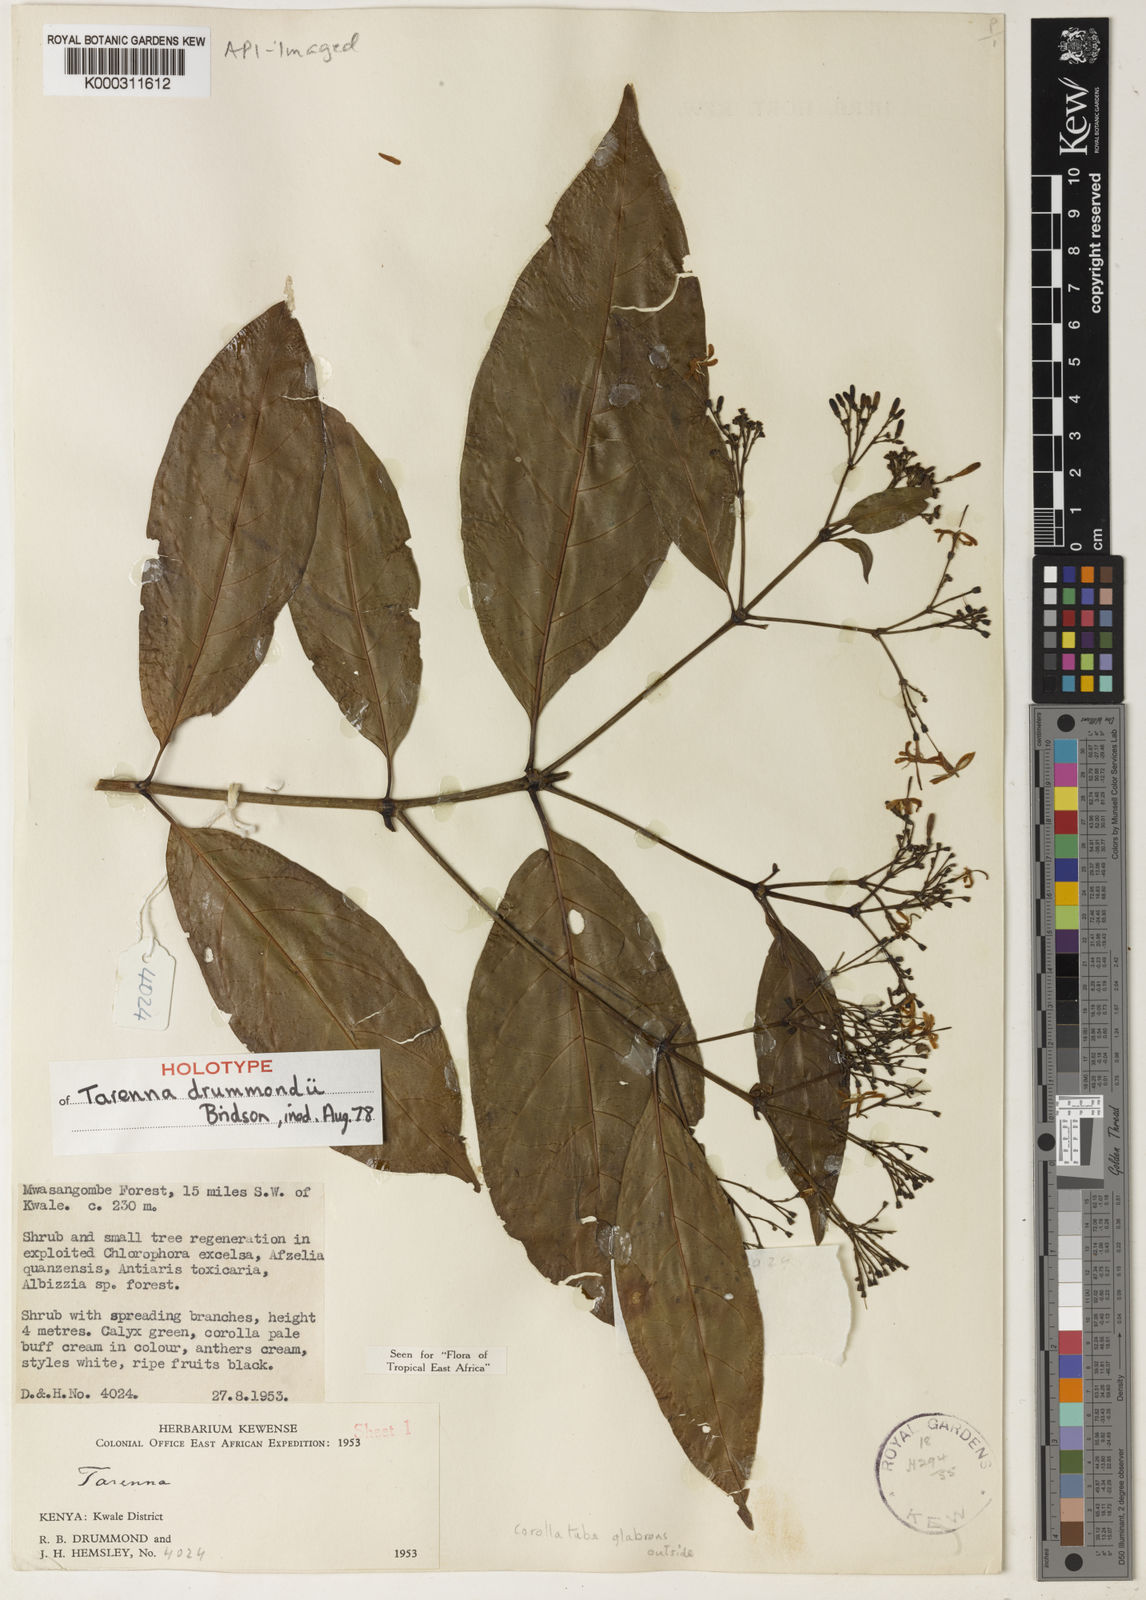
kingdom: Plantae
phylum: Tracheophyta
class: Magnoliopsida
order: Gentianales
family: Rubiaceae
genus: Tarenna
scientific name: Tarenna drummondii
